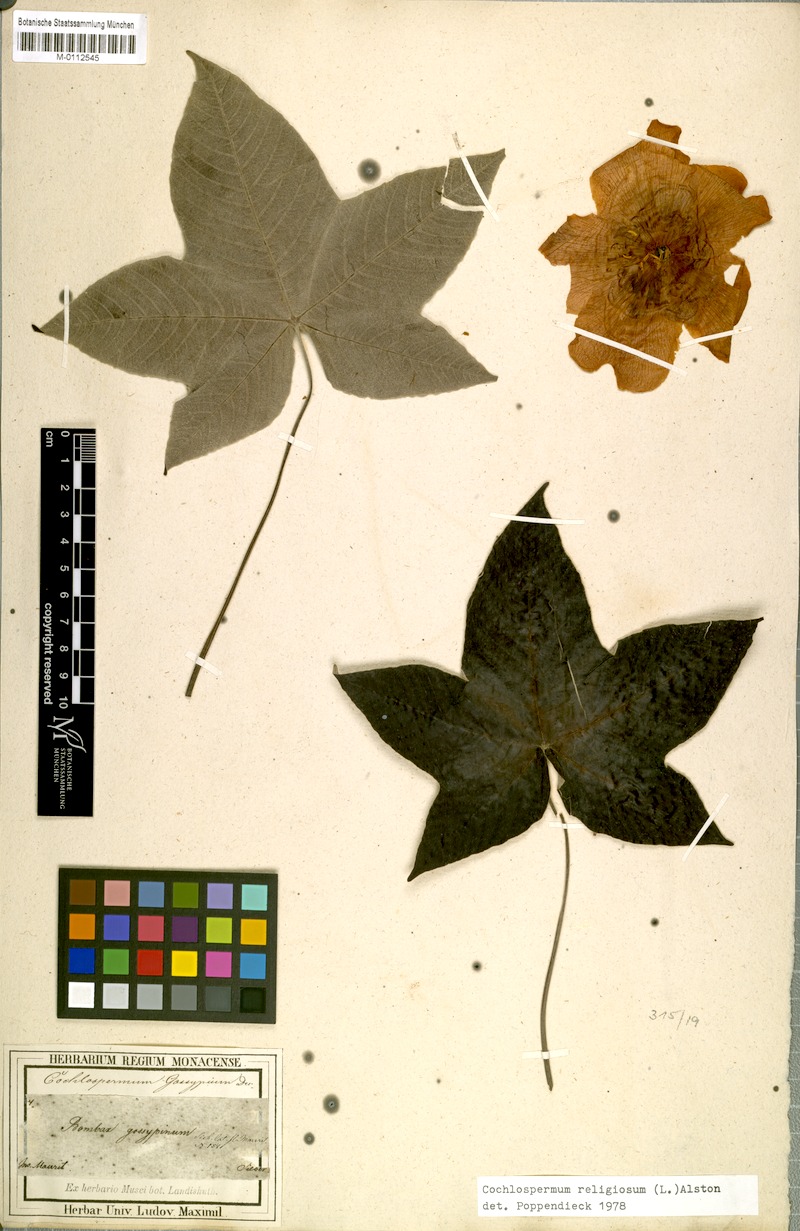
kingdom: Plantae
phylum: Tracheophyta
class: Magnoliopsida
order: Malvales
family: Cochlospermaceae
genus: Cochlospermum
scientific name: Cochlospermum religiosum
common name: Cottontree
